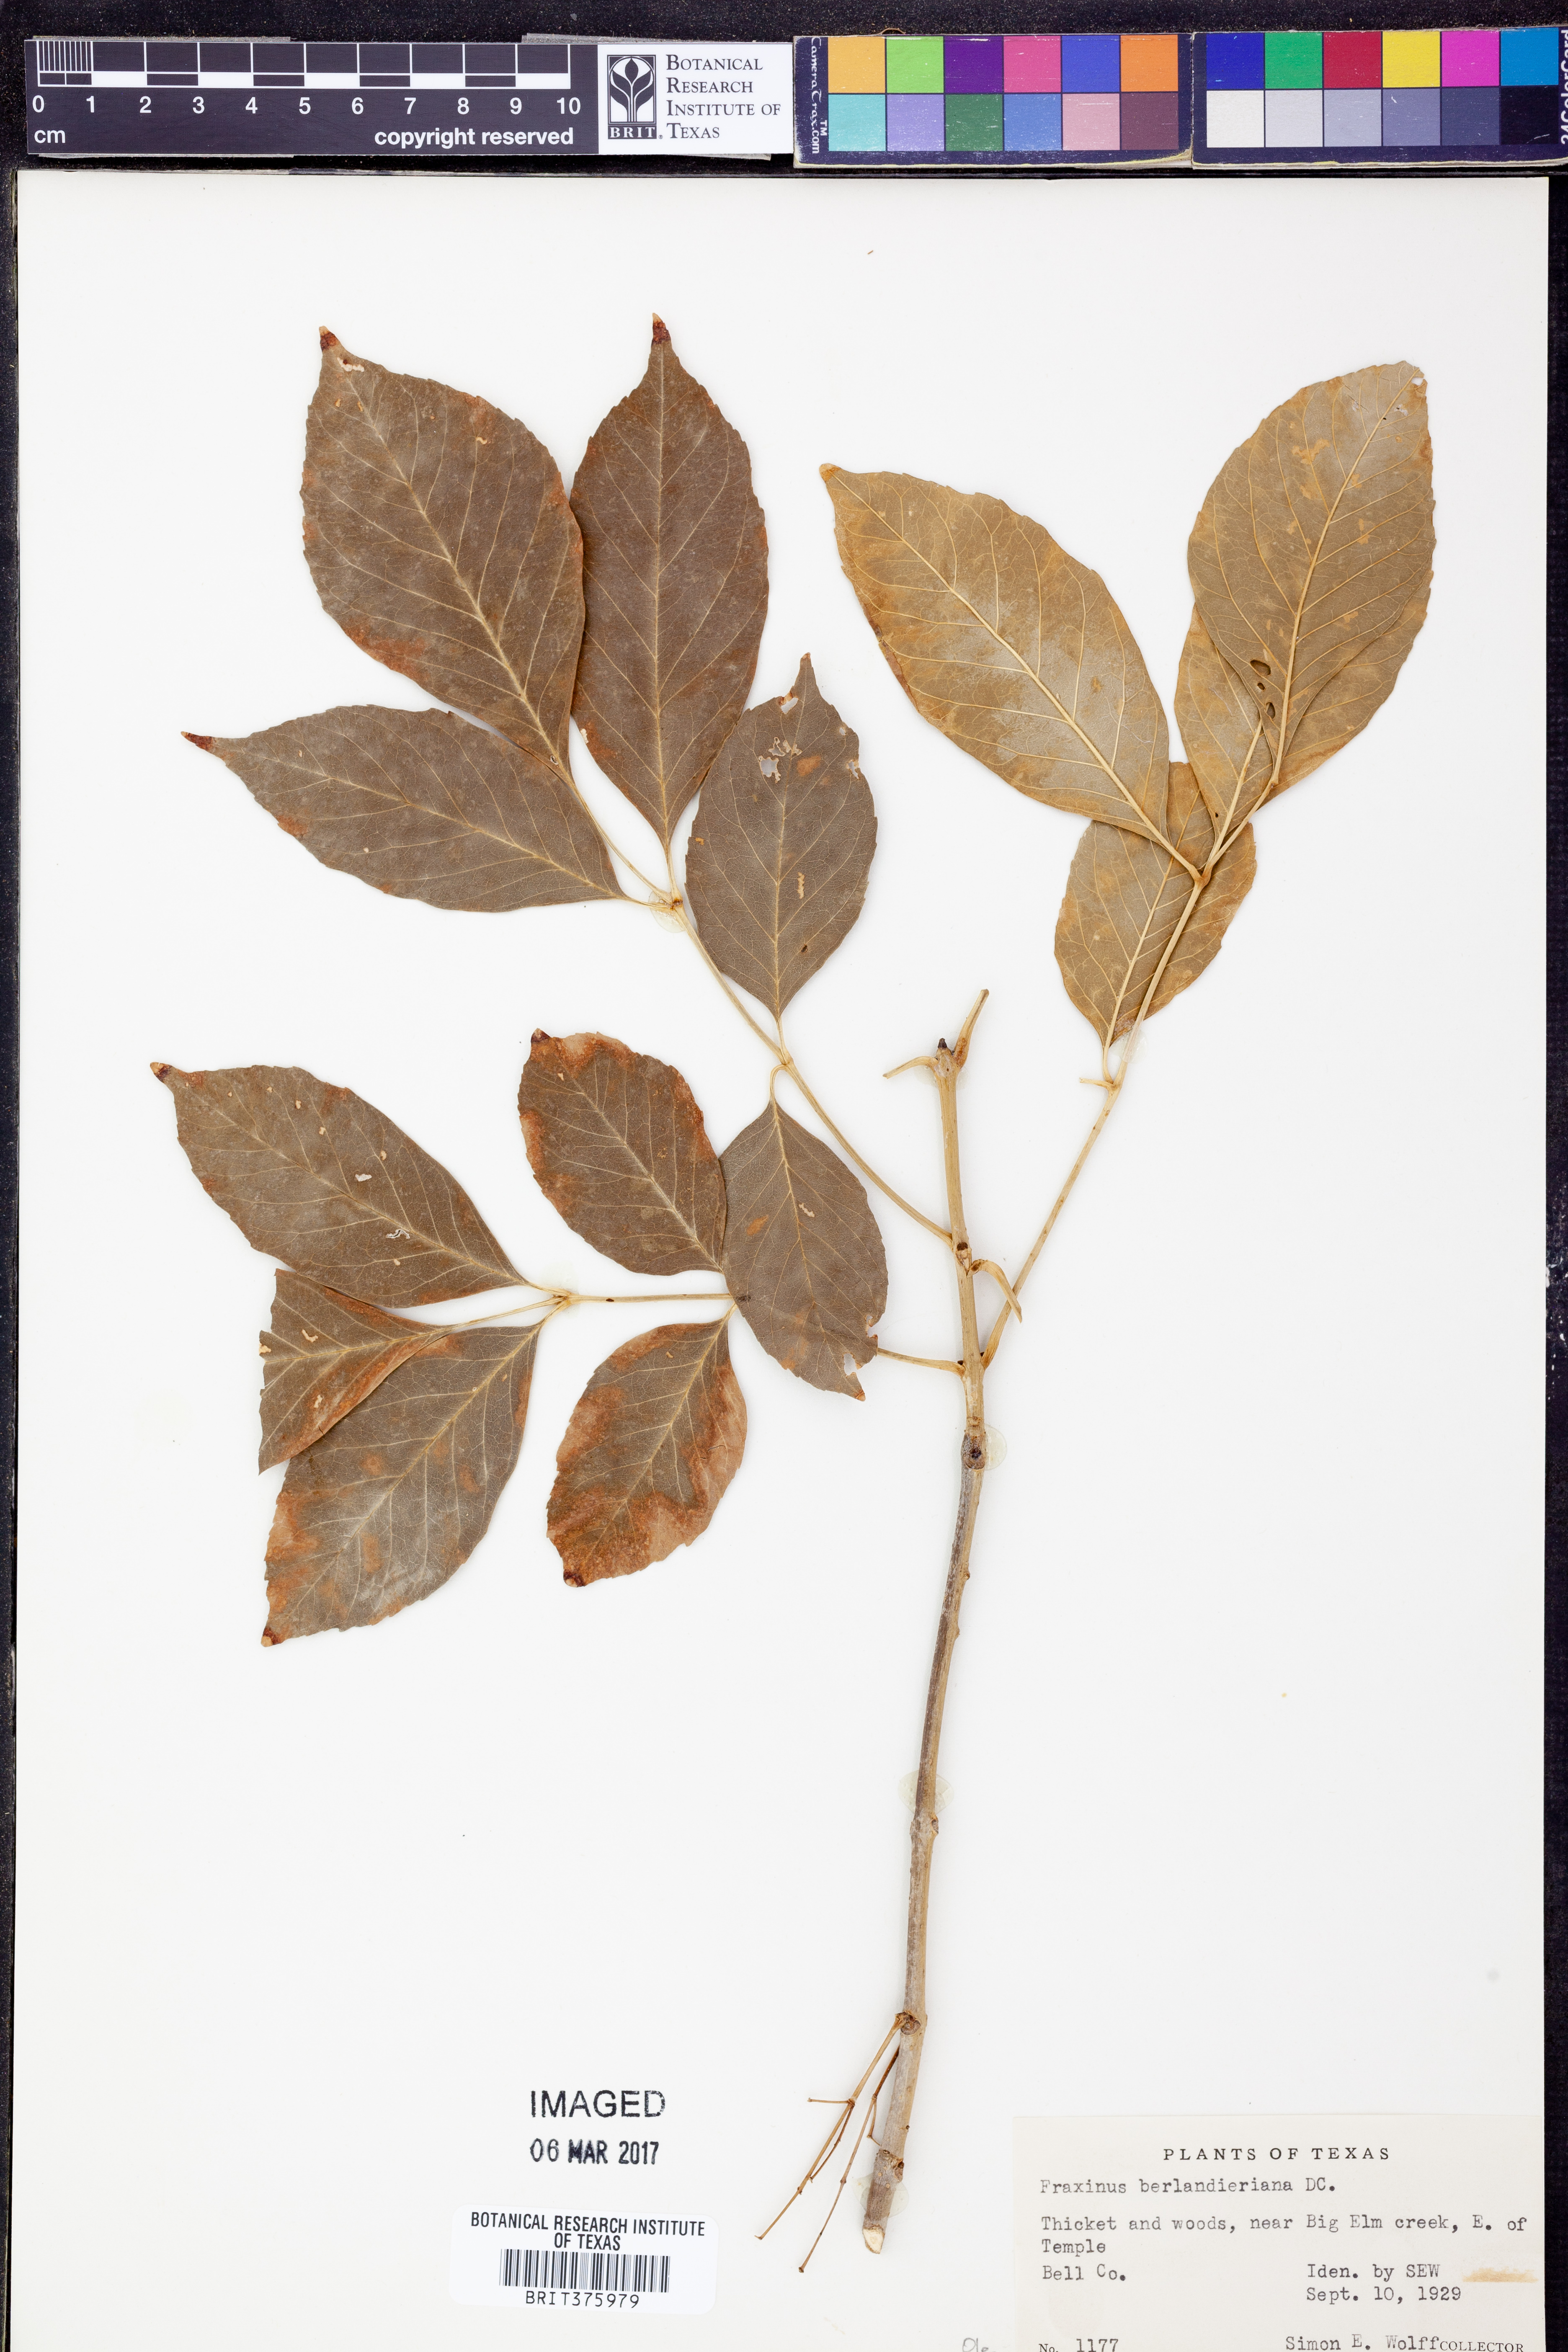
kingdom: Plantae
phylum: Tracheophyta
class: Magnoliopsida
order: Lamiales
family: Oleaceae
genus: Fraxinus
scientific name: Fraxinus berlandieriana
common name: Berlandier ash
